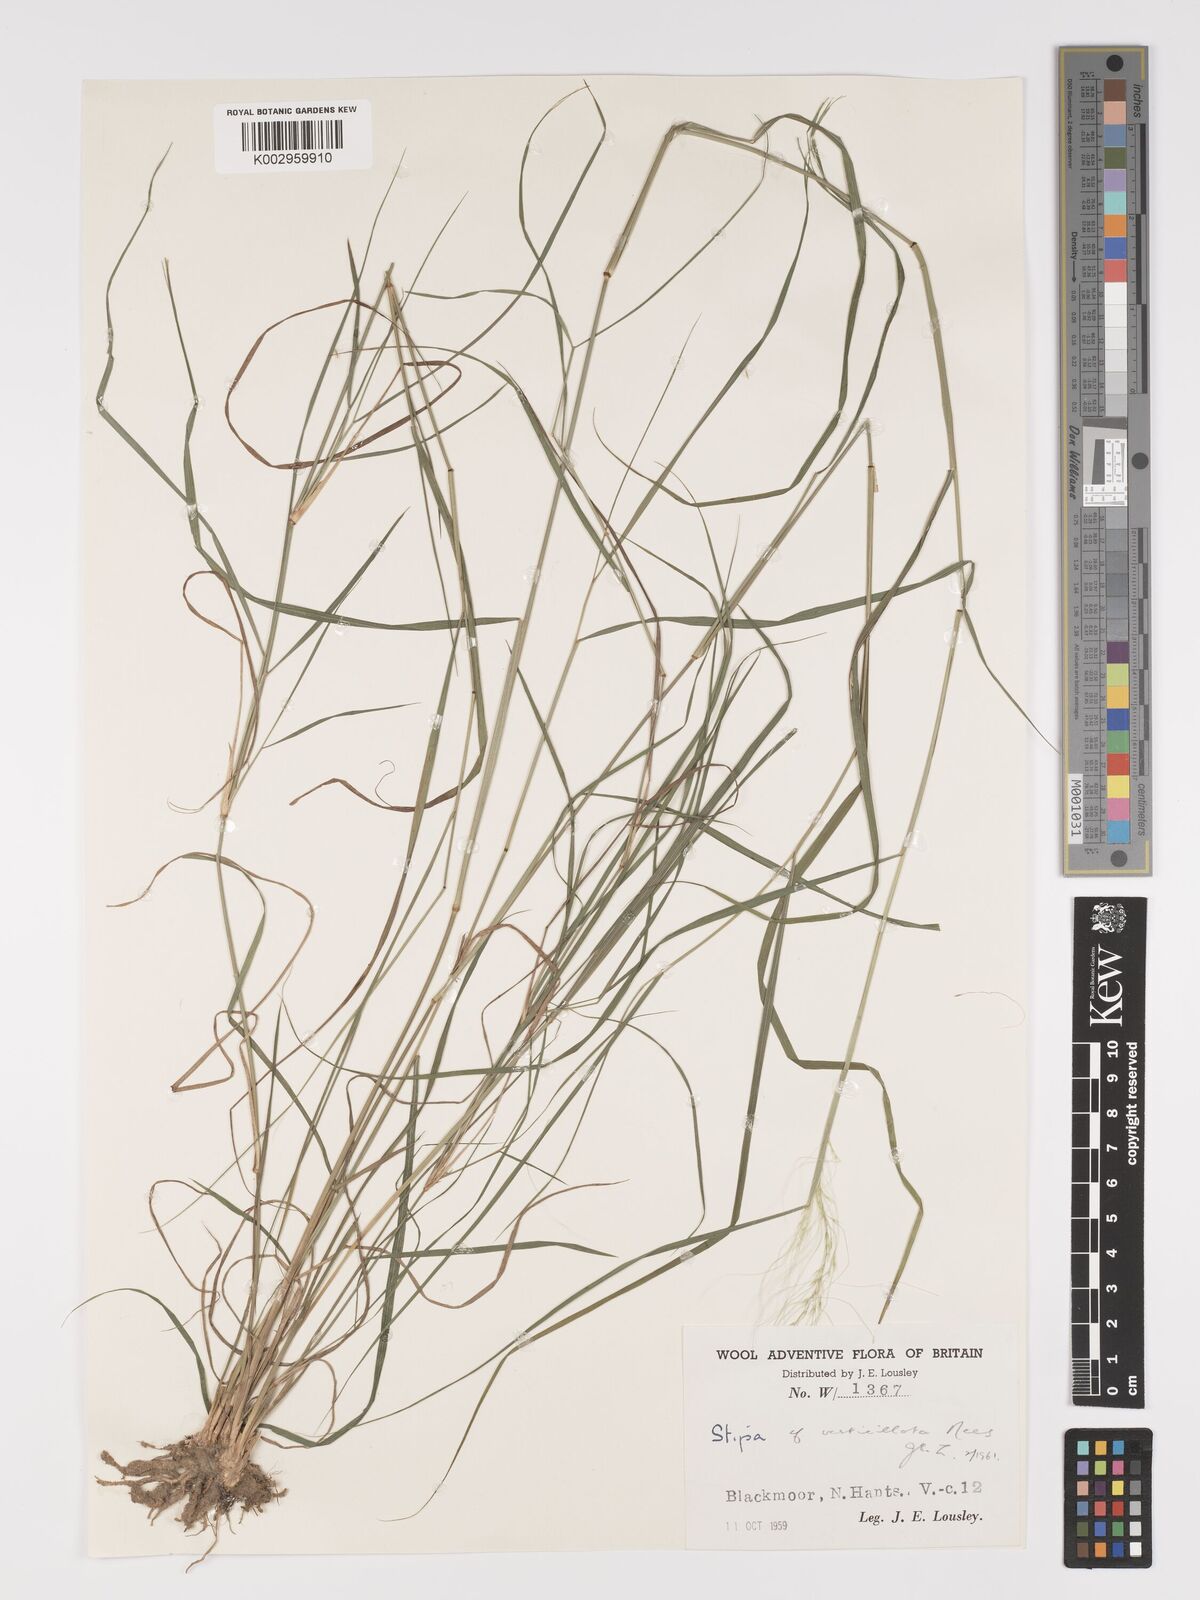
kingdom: Plantae
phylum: Tracheophyta
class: Liliopsida
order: Poales
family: Poaceae
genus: Austrostipa
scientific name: Austrostipa verticillata
